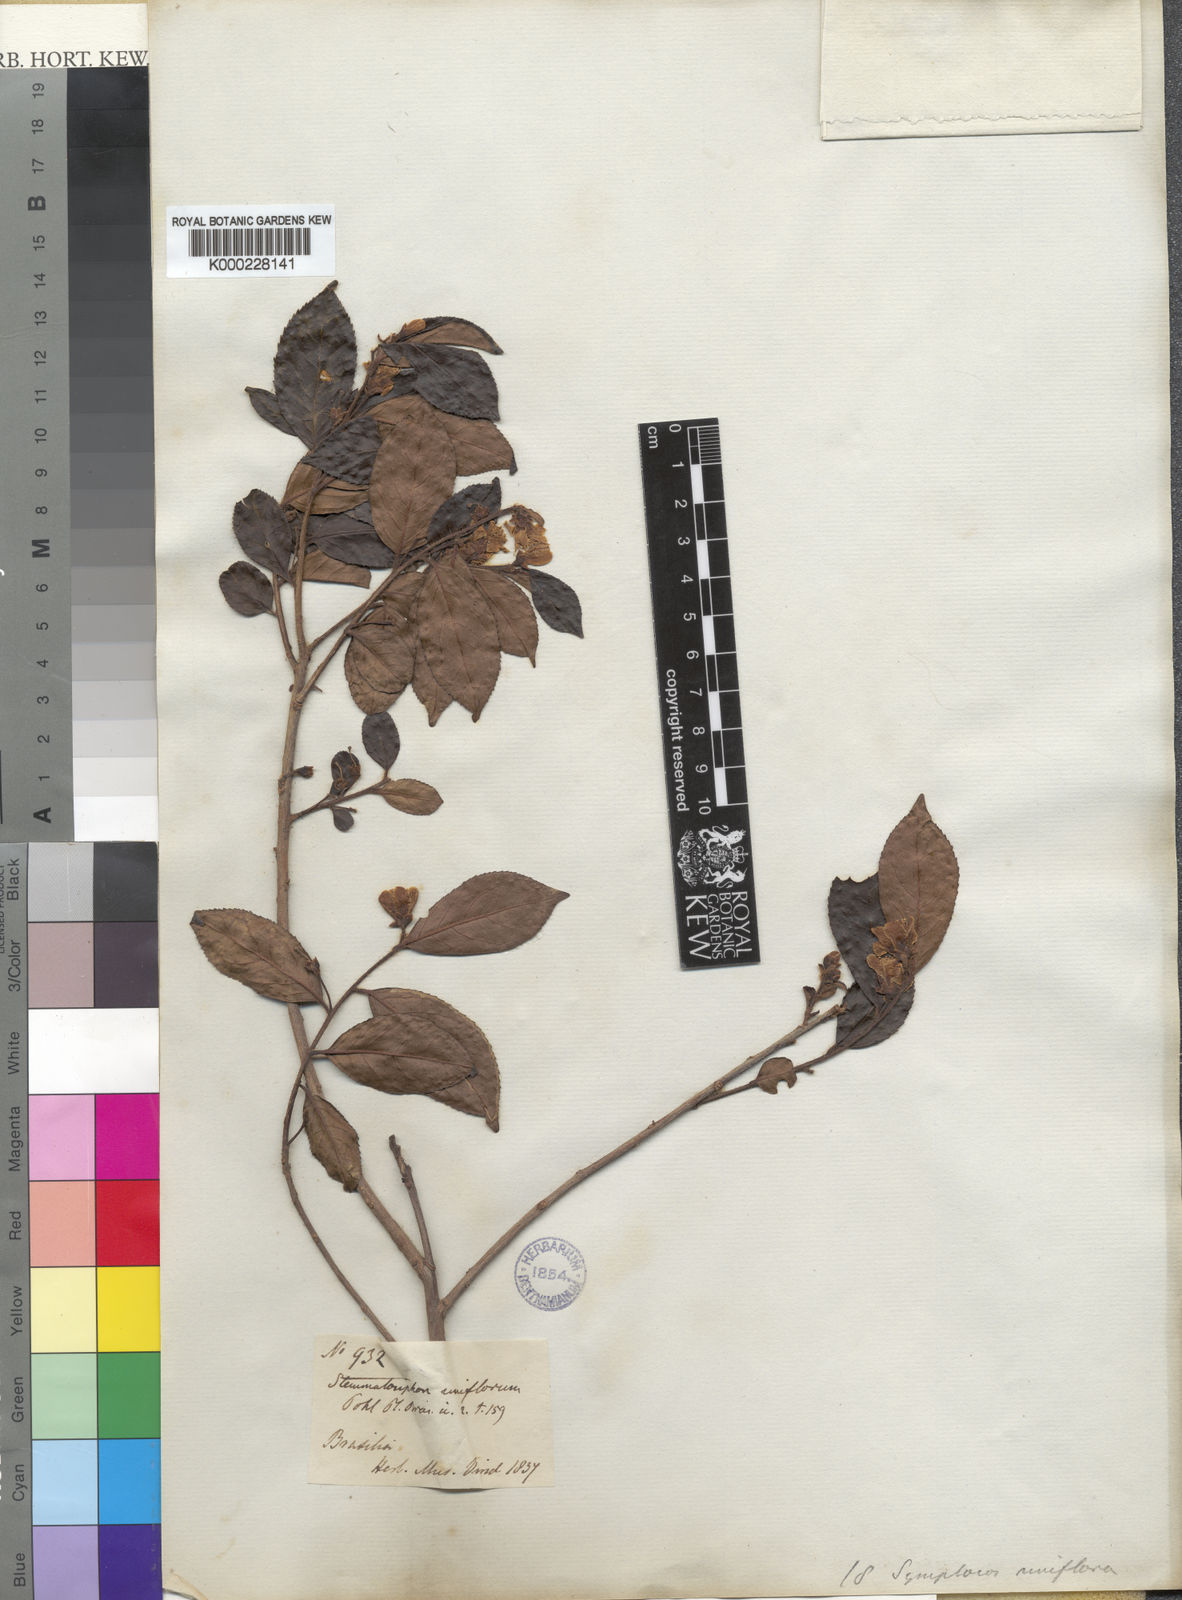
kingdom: Plantae
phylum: Tracheophyta
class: Magnoliopsida
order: Ericales
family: Symplocaceae
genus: Symplocos
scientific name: Symplocos uniflora
